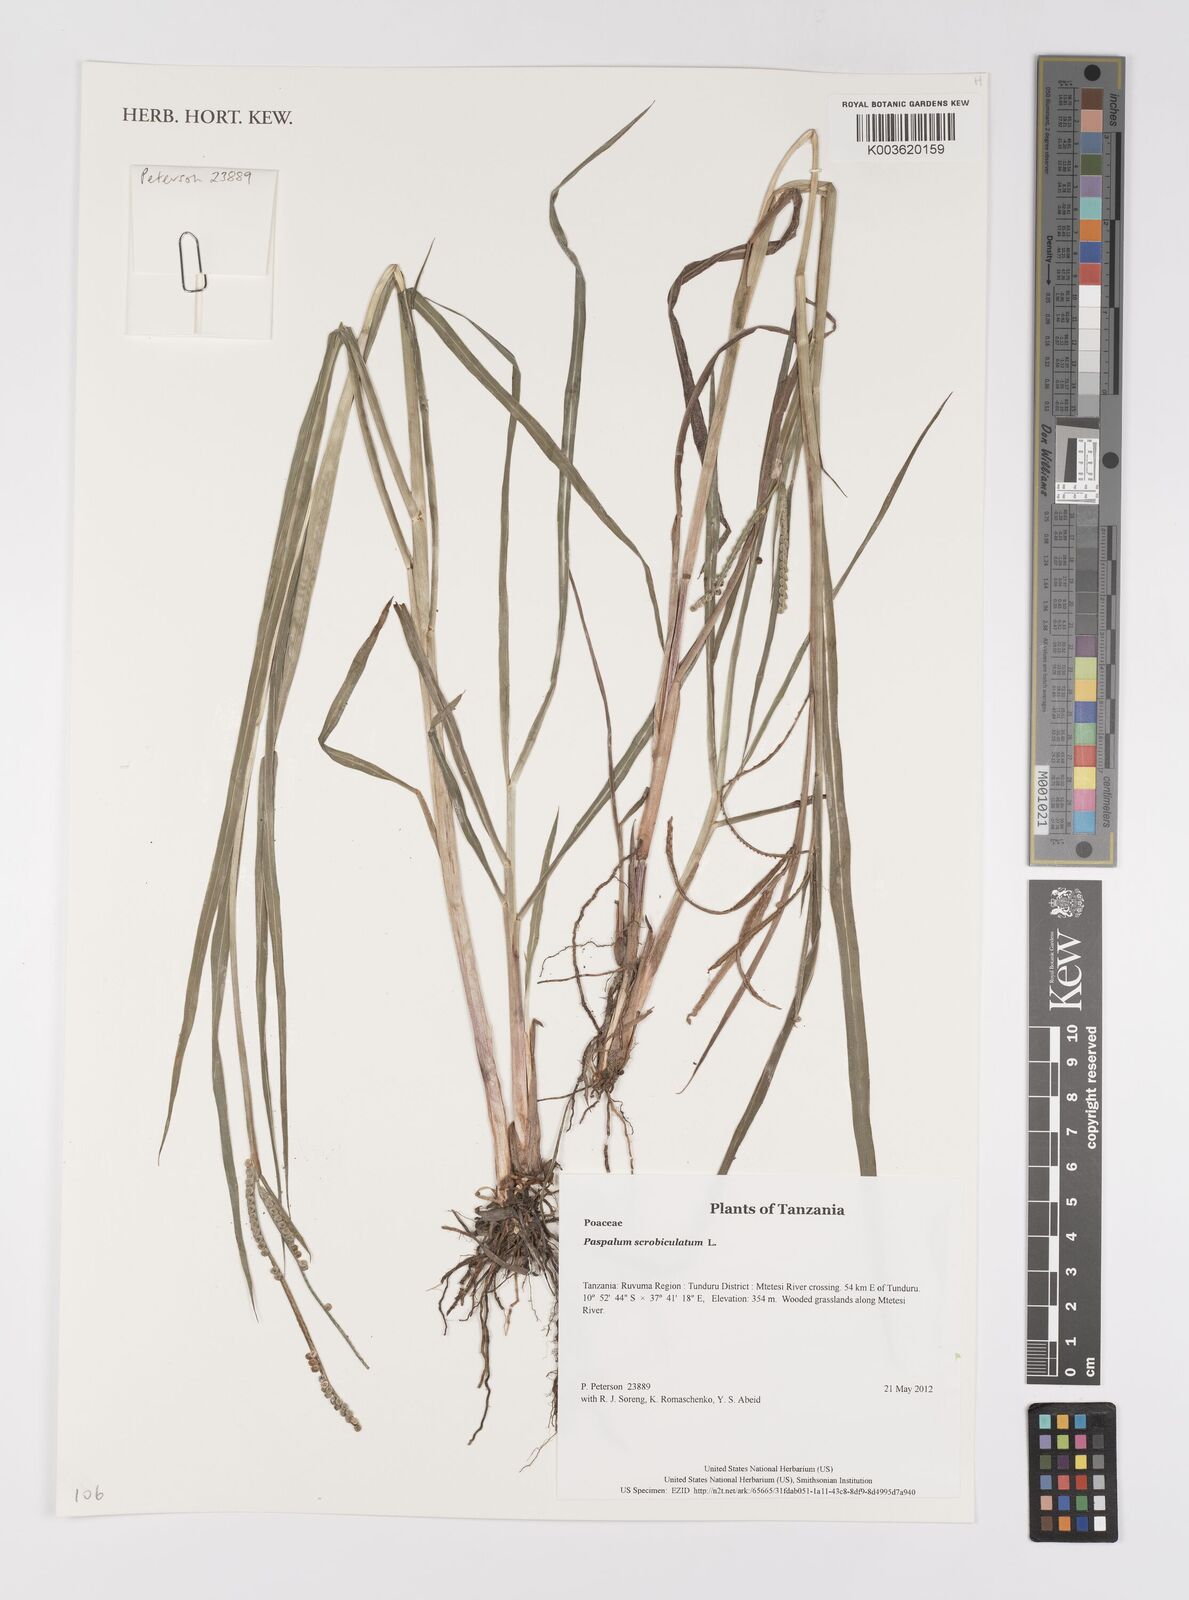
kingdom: Plantae
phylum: Tracheophyta
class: Liliopsida
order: Poales
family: Poaceae
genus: Paspalum
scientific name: Paspalum scrobiculatum
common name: Kodo millet
